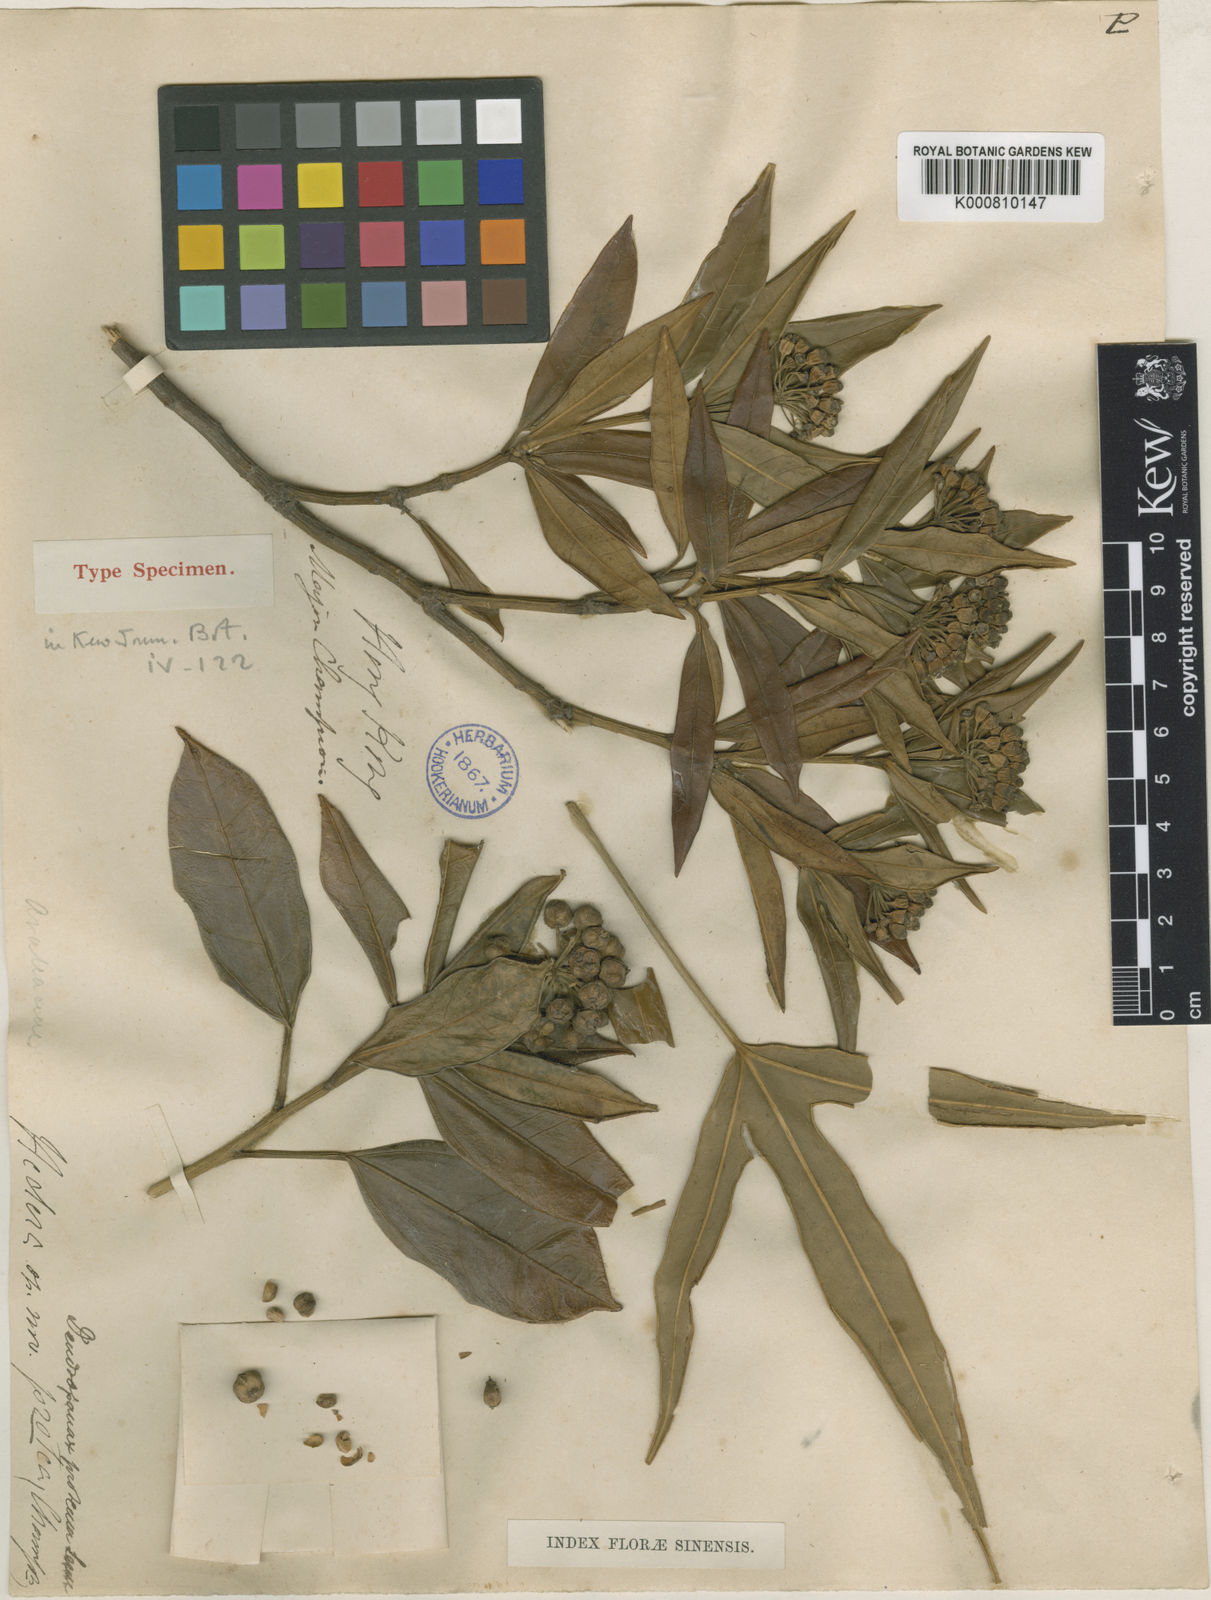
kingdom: Plantae
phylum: Tracheophyta
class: Magnoliopsida
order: Apiales
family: Araliaceae
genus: Dendropanax
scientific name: Dendropanax proteus
